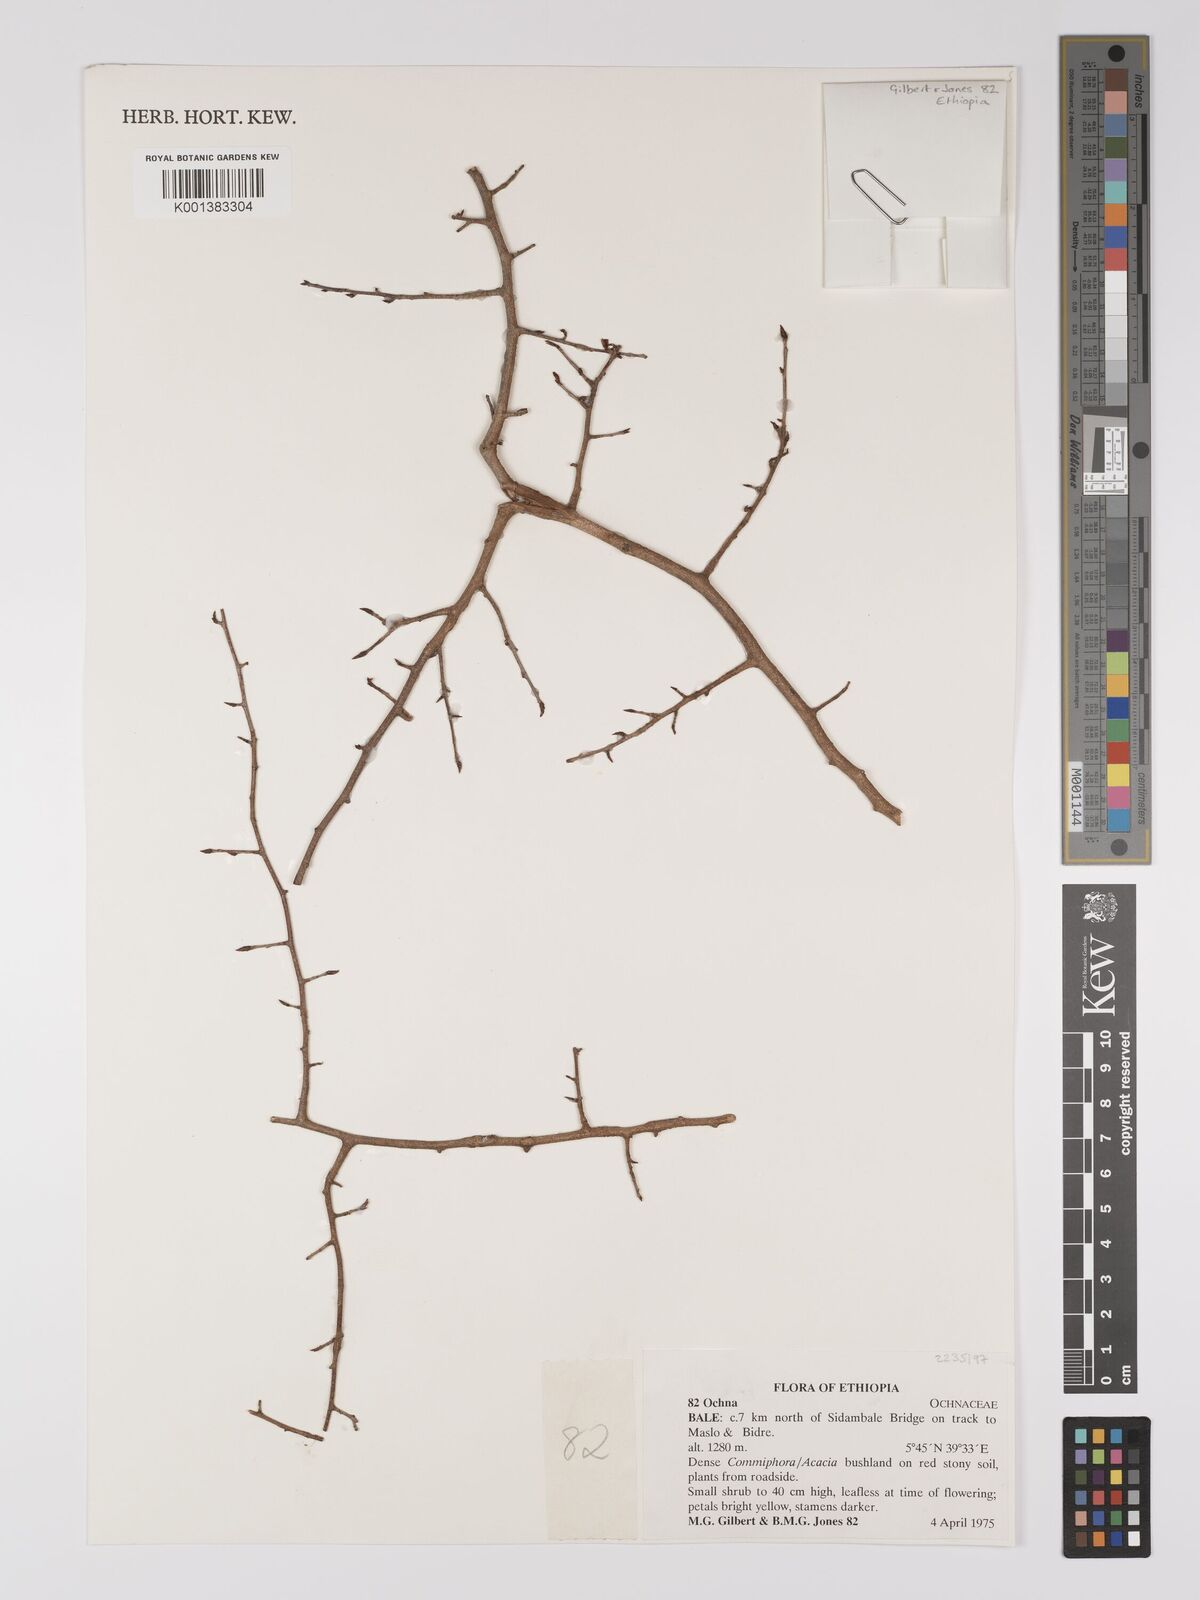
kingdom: Plantae
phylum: Tracheophyta
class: Magnoliopsida
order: Malpighiales
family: Ochnaceae
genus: Ochna
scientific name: Ochna
